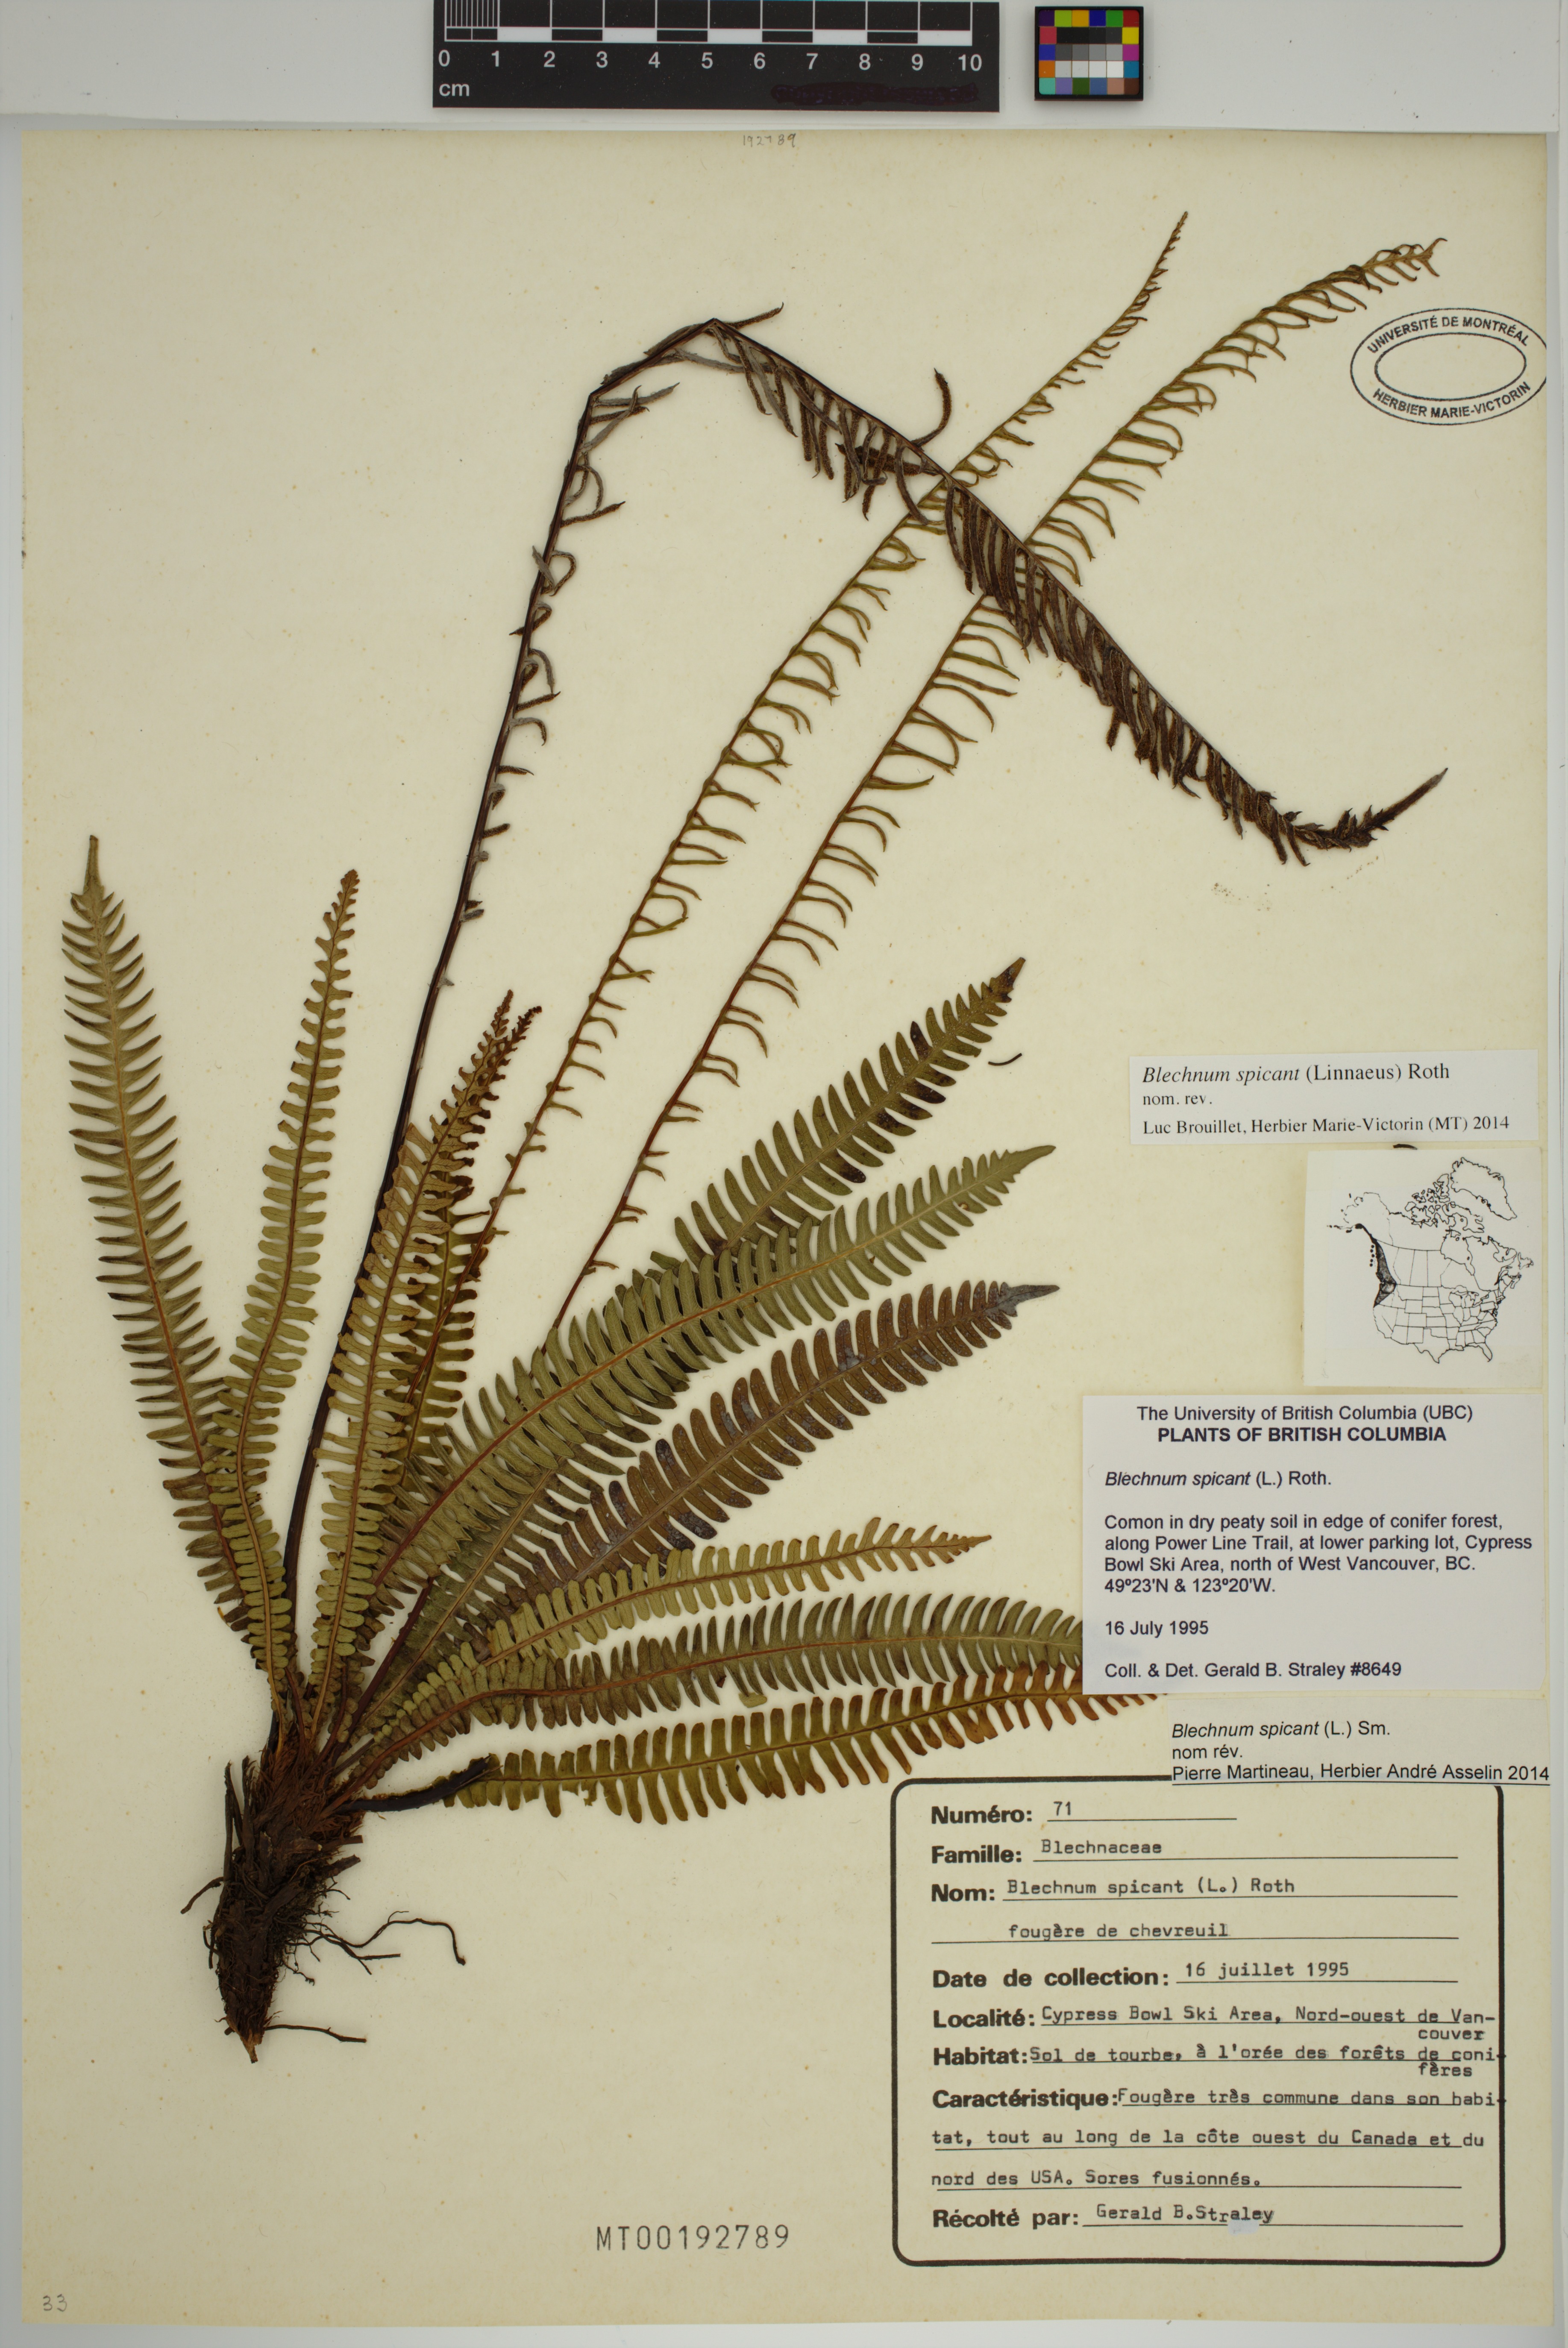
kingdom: Plantae
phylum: Tracheophyta
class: Polypodiopsida
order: Polypodiales
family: Blechnaceae
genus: Struthiopteris
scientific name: Struthiopteris spicant
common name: Deer fern
